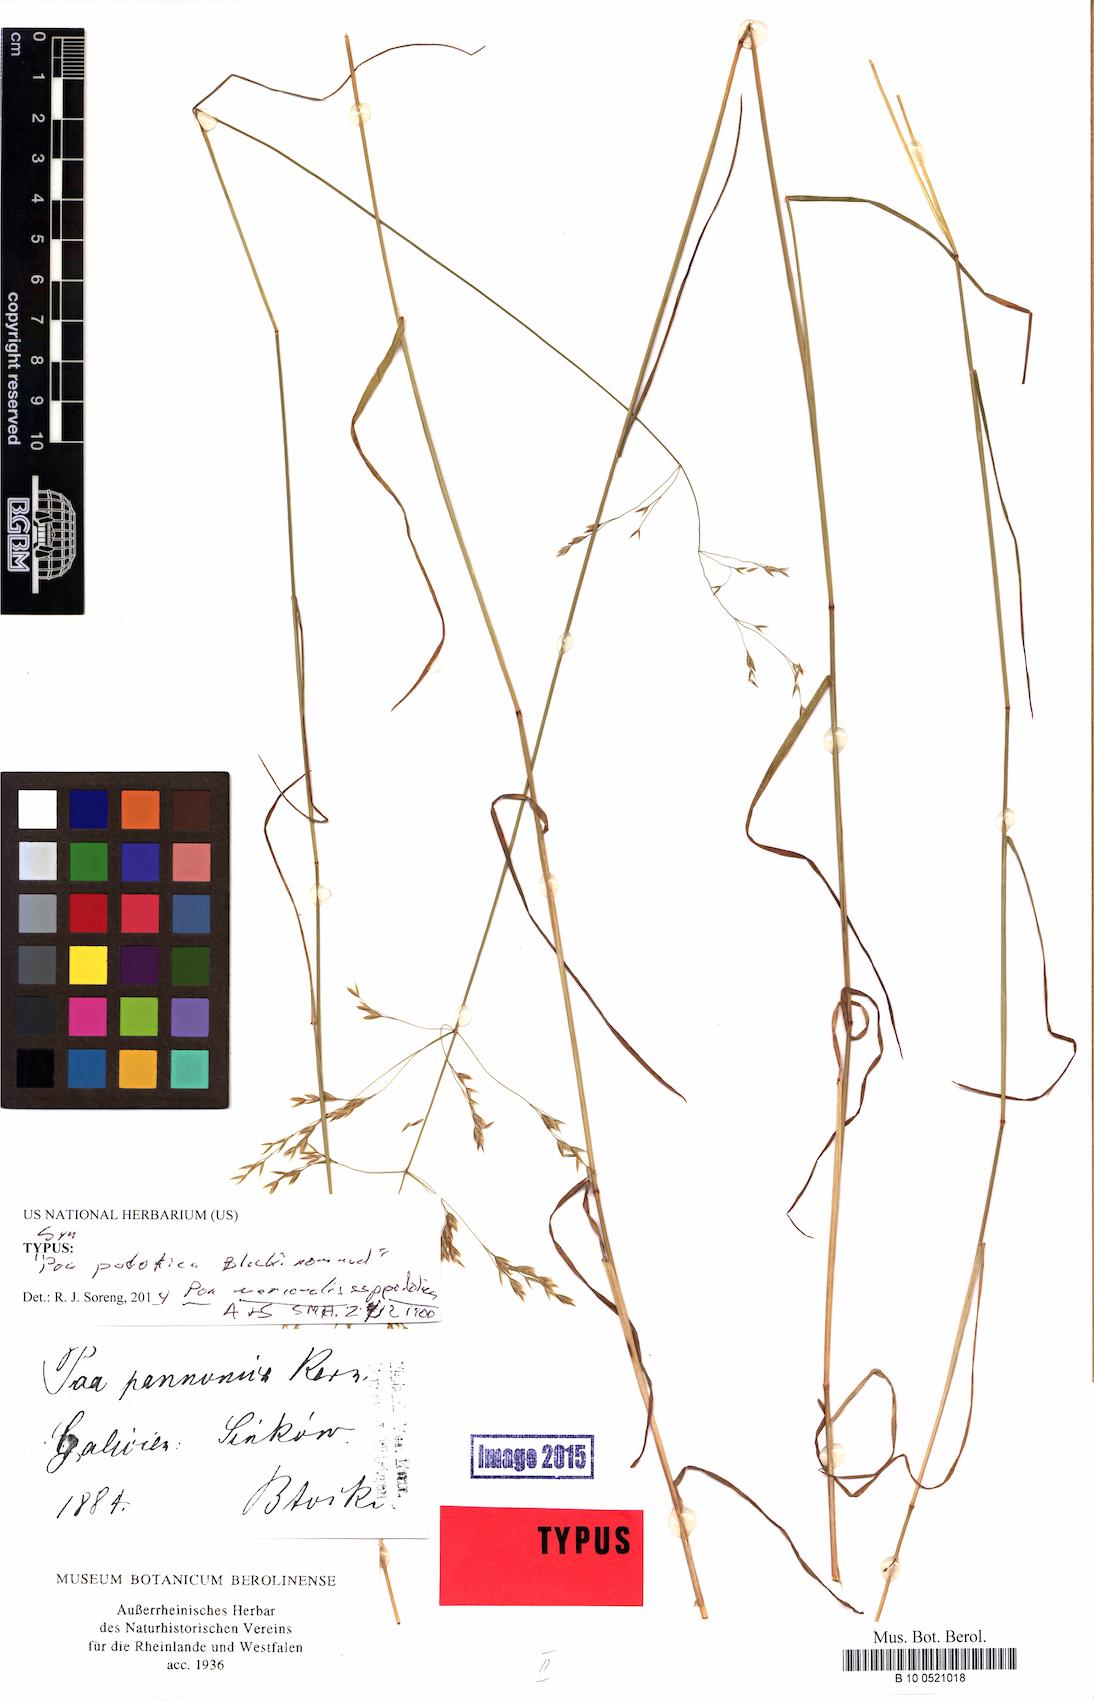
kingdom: Plantae
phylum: Tracheophyta
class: Liliopsida
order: Poales
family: Poaceae
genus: Poa
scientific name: Poa versicolor
